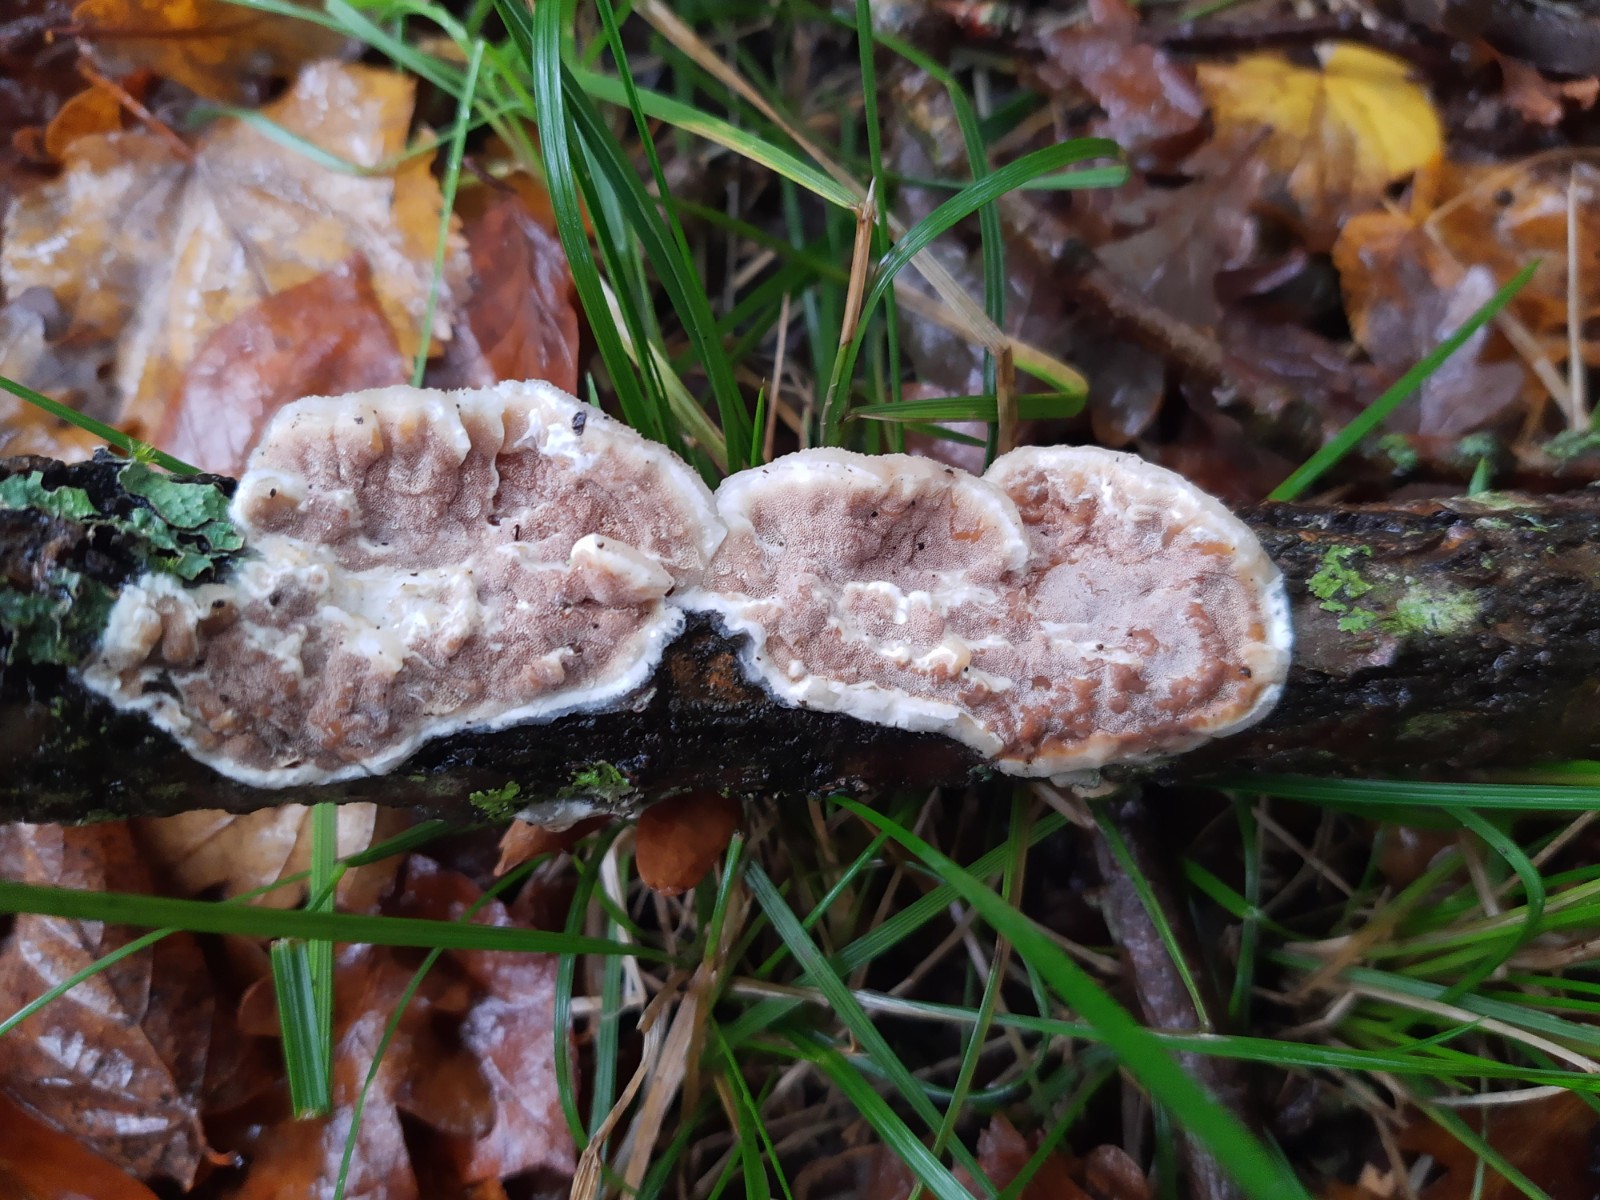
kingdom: Fungi
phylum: Basidiomycota
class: Agaricomycetes
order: Polyporales
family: Irpicaceae
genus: Vitreoporus
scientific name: Vitreoporus dichrous
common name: tofarvet foldporesvamp
